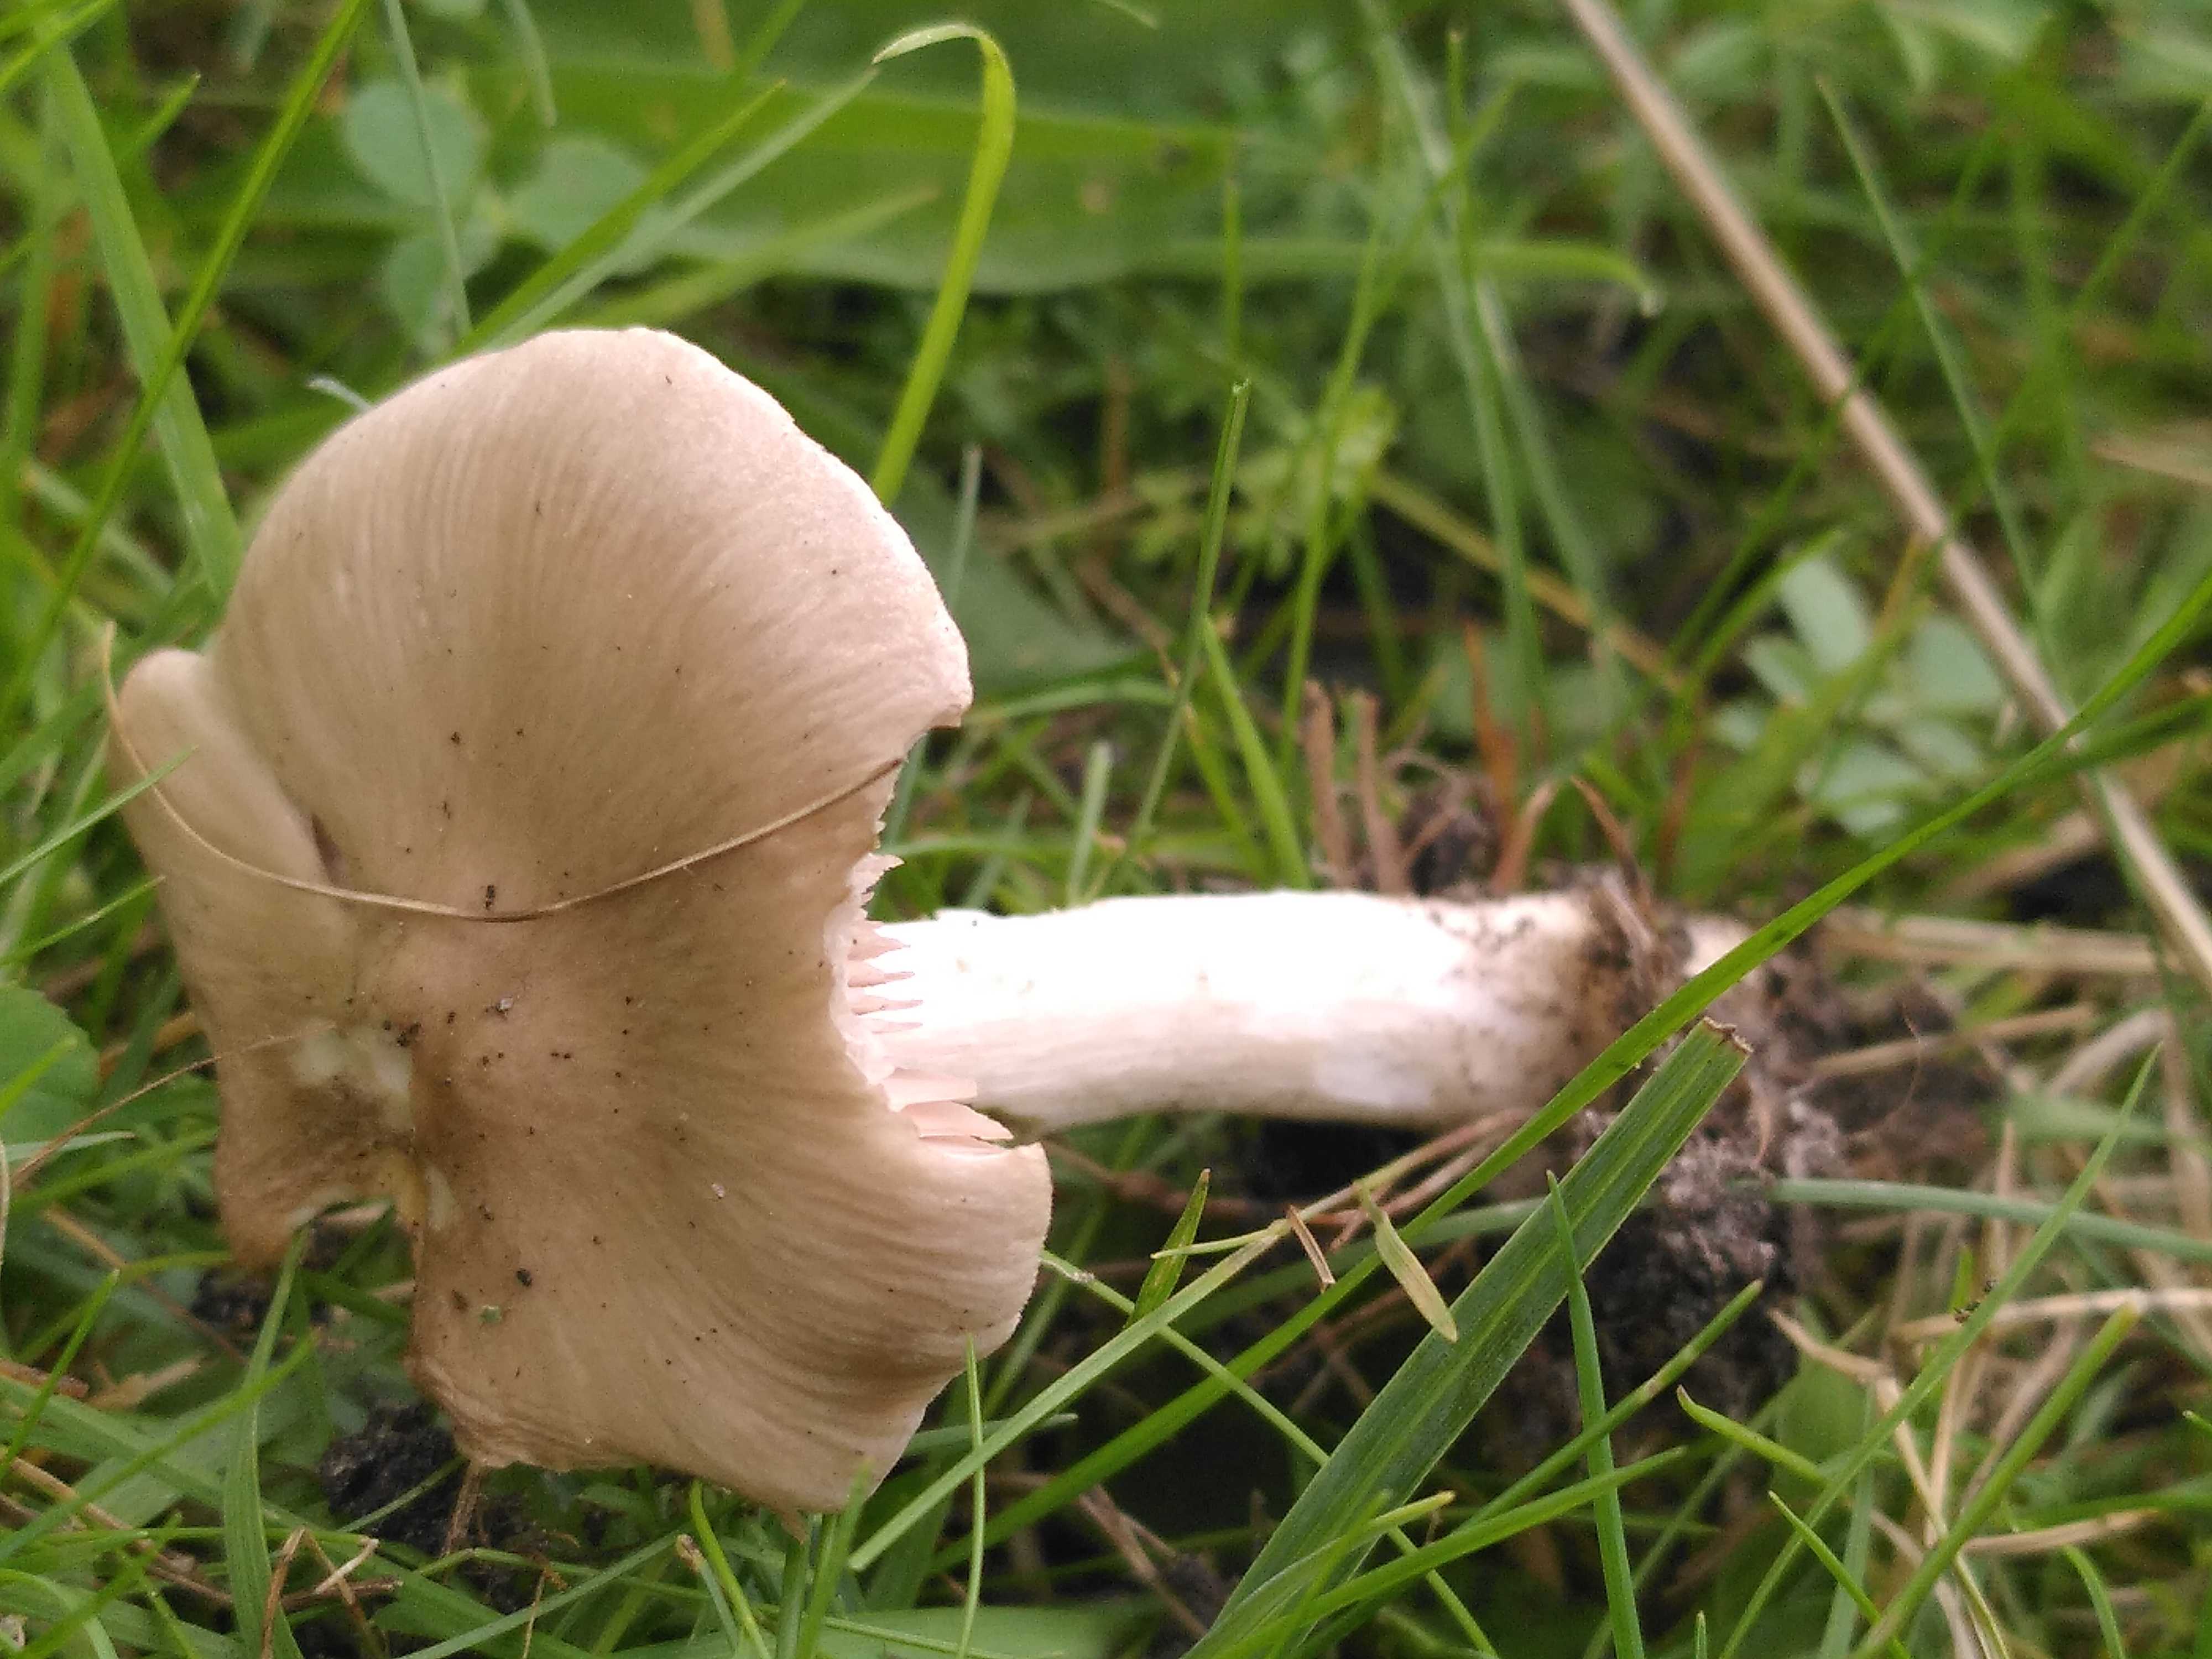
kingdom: Fungi
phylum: Basidiomycota
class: Agaricomycetes
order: Agaricales
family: Entolomataceae
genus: Entoloma
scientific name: Entoloma
